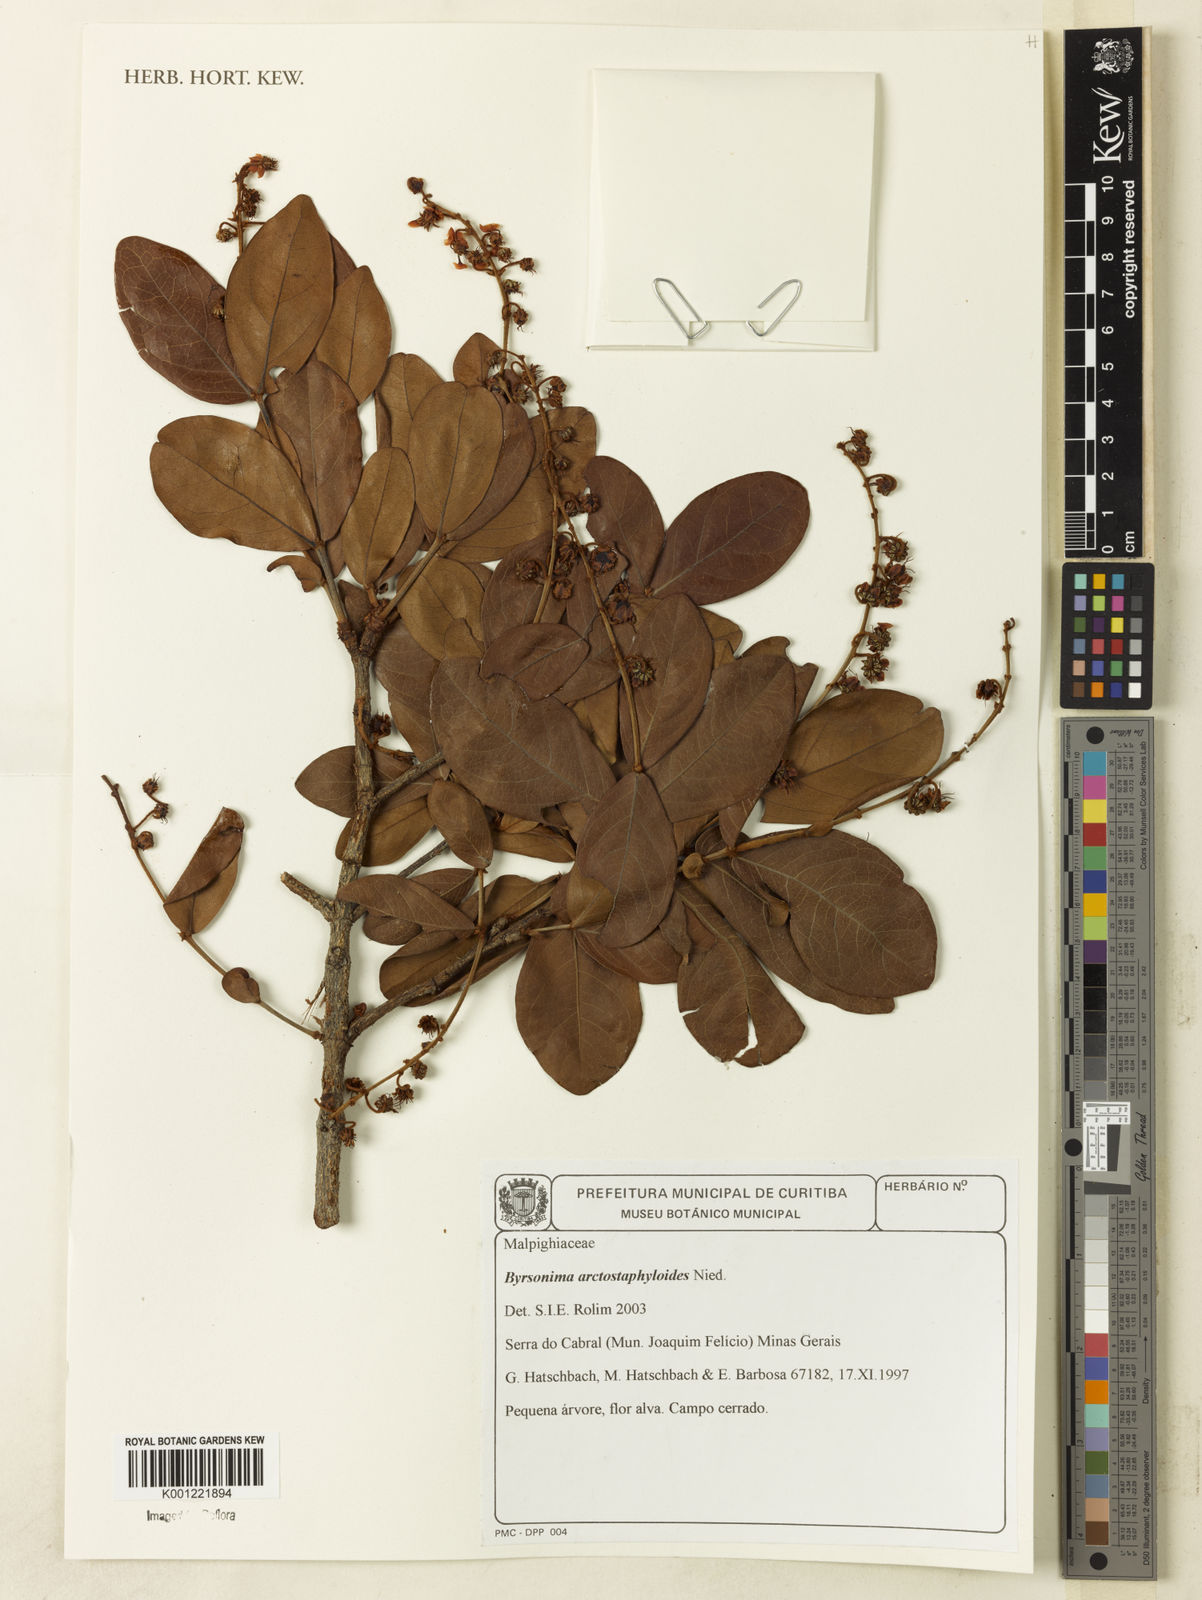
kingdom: Plantae
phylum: Tracheophyta
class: Magnoliopsida
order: Malpighiales
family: Malpighiaceae
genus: Byrsonima
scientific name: Byrsonima arctostaphyloides
